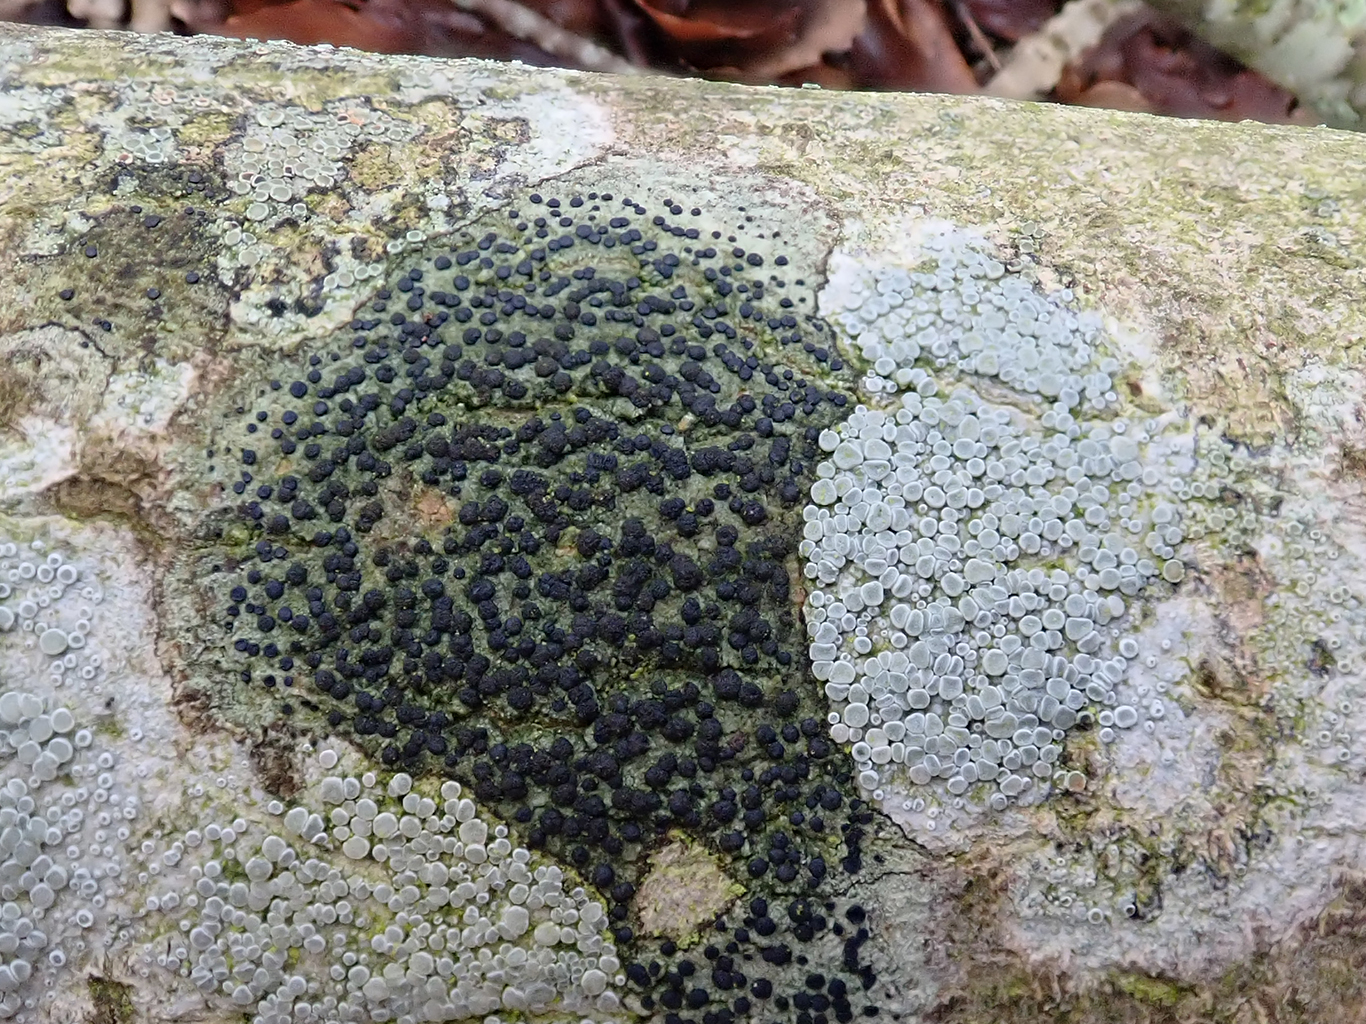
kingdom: Fungi
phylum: Ascomycota
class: Lecanoromycetes
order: Lecanorales
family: Lecanoraceae
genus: Lecidella
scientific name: Lecidella elaeochroma
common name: grågrøn skivelav
